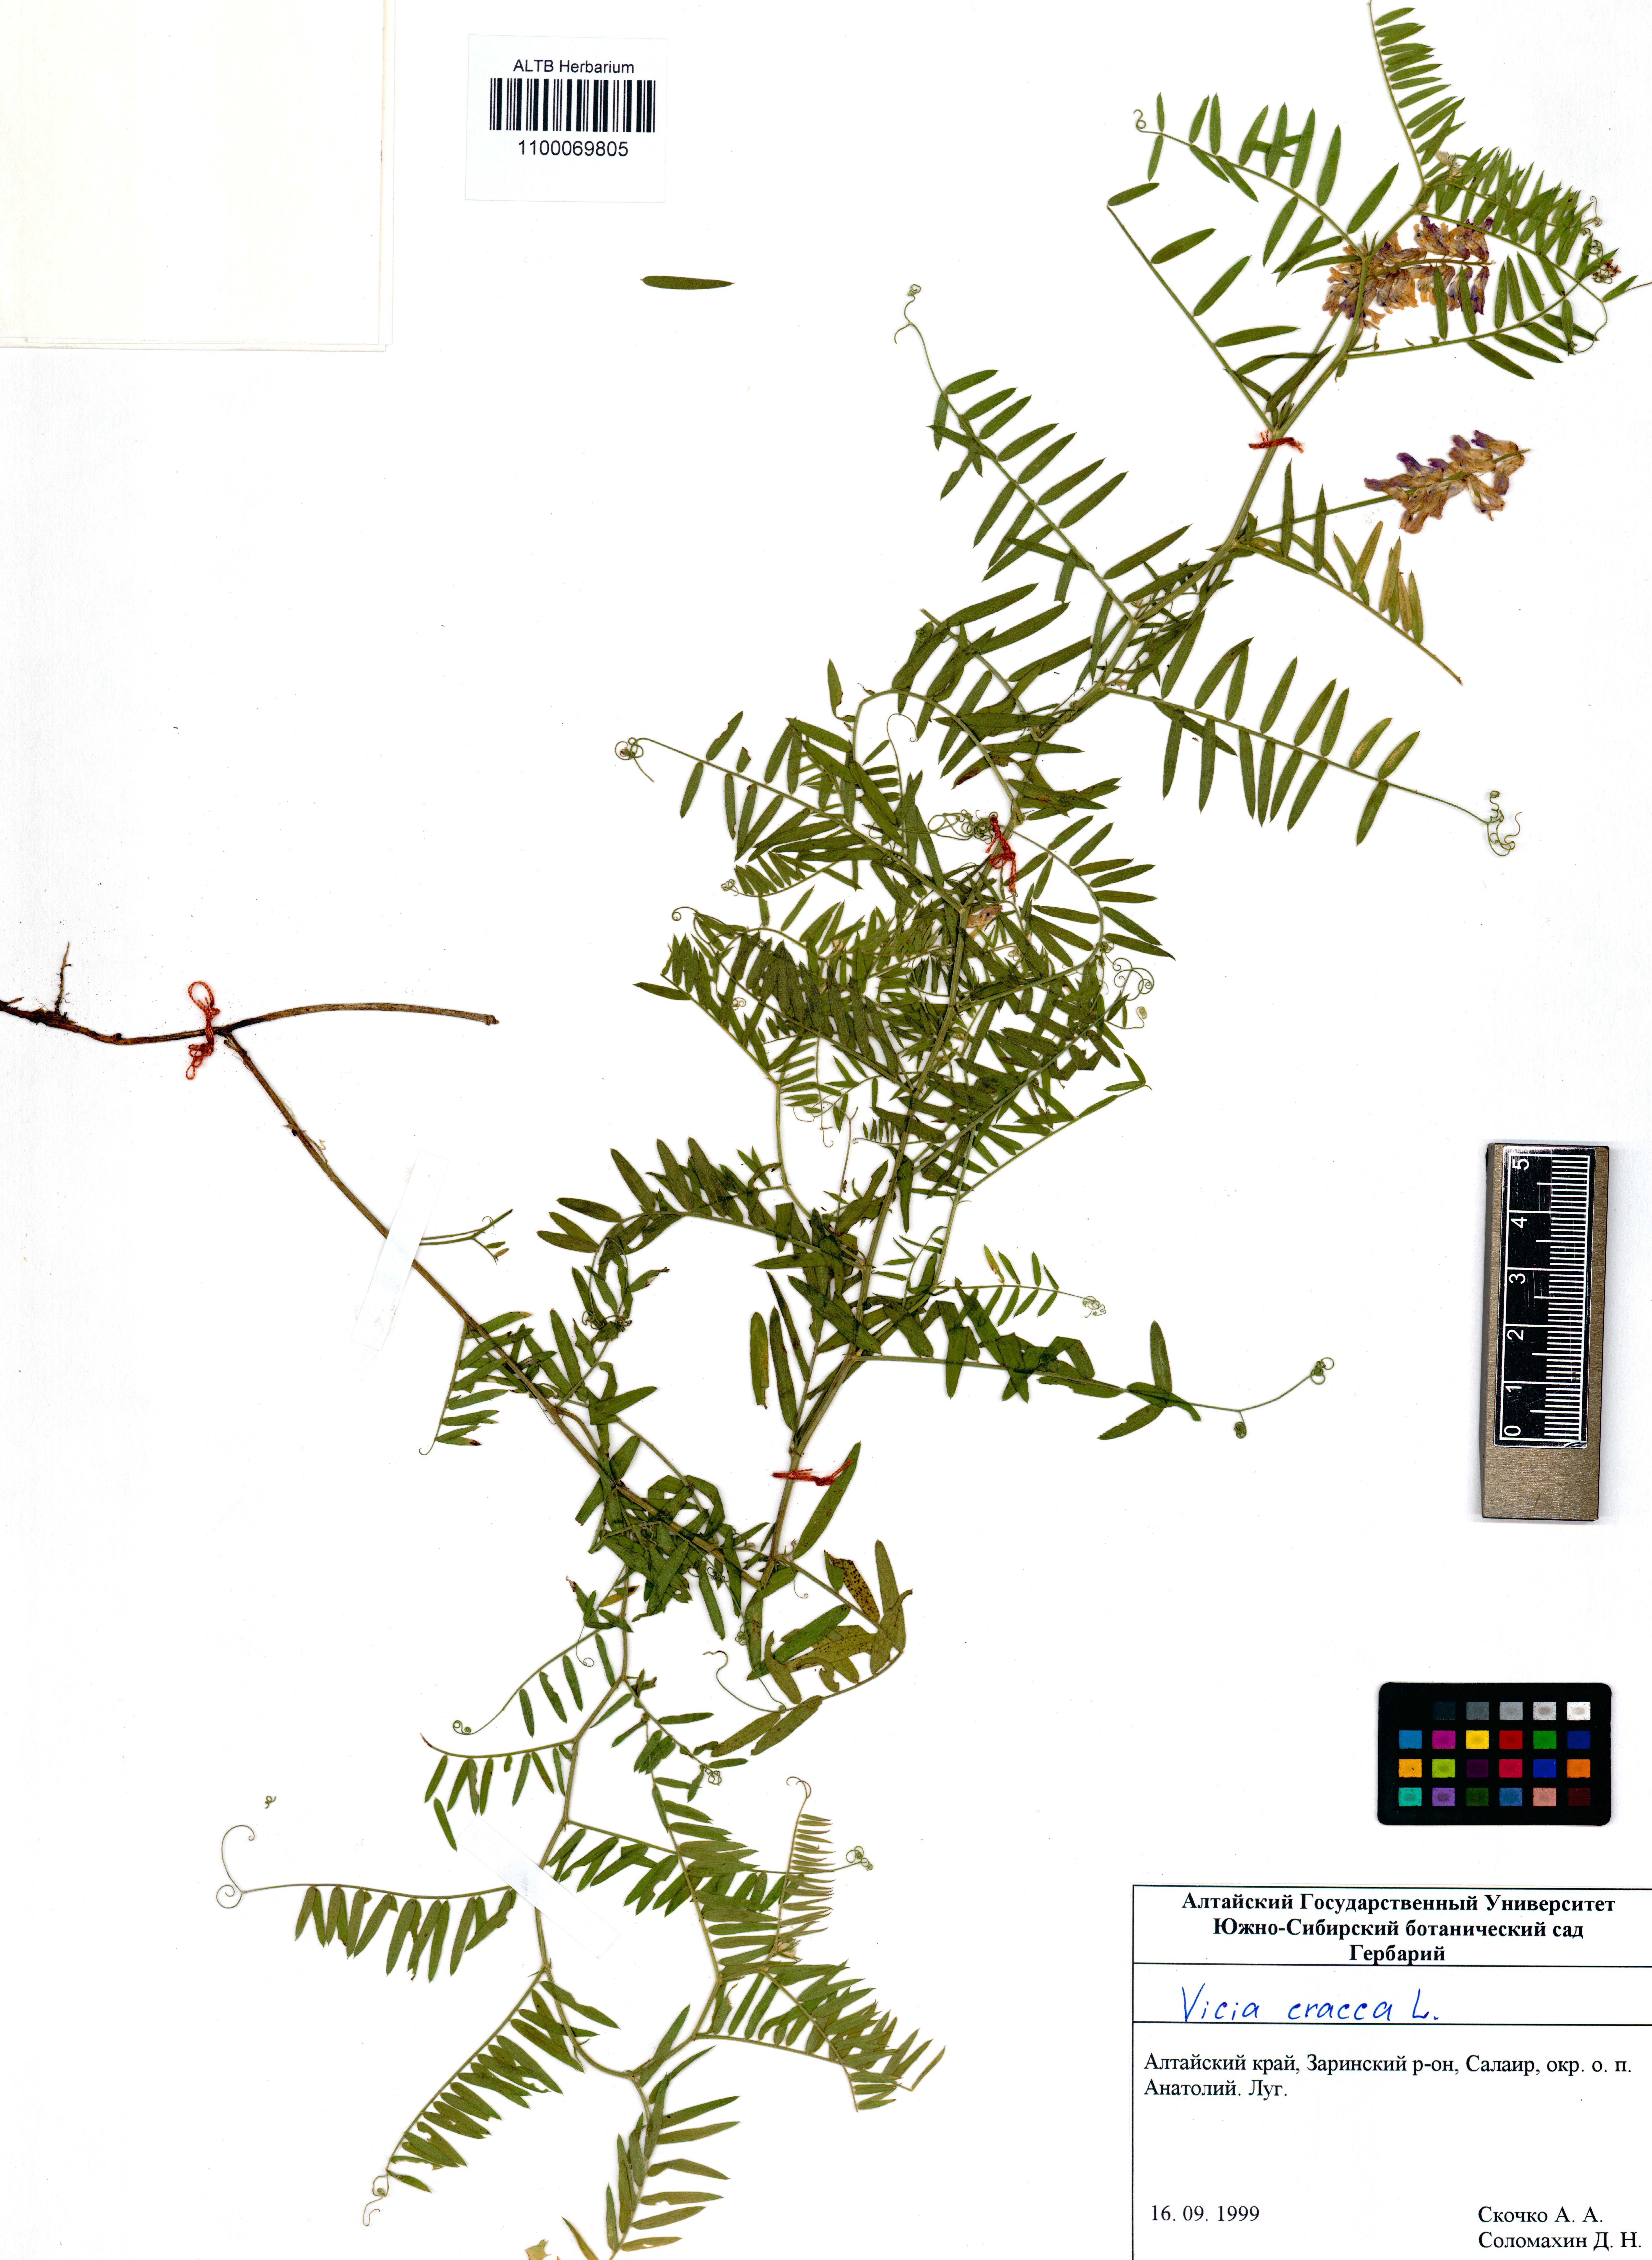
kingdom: Plantae
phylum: Tracheophyta
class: Magnoliopsida
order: Fabales
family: Fabaceae
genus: Vicia
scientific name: Vicia cracca
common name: Bird vetch
